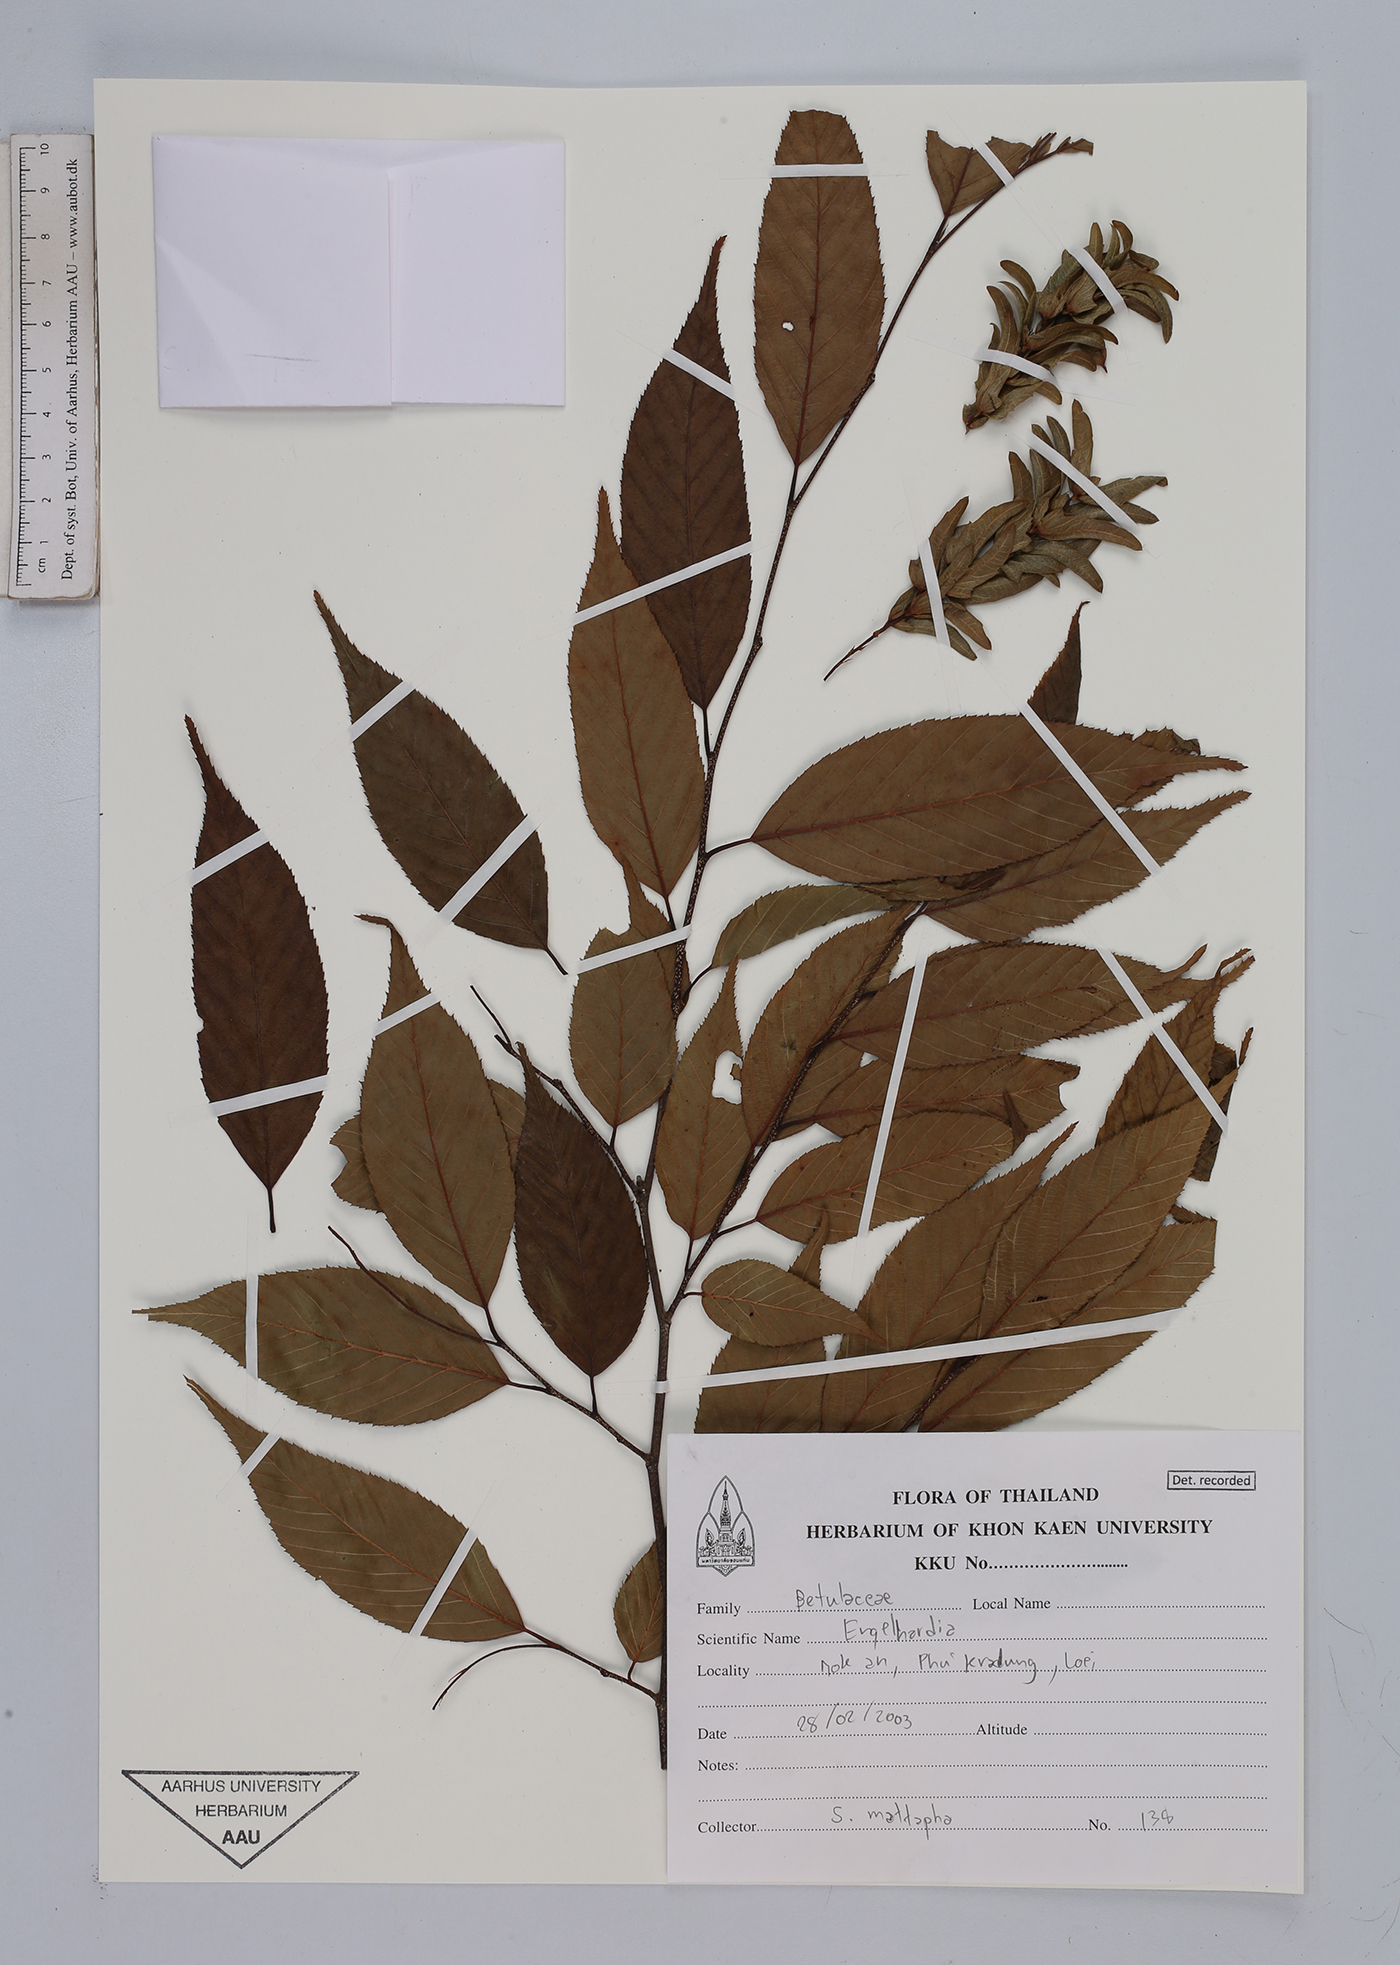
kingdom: Plantae
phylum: Tracheophyta
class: Magnoliopsida
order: Fagales
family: Juglandaceae
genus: Engelhardia
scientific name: Engelhardia
